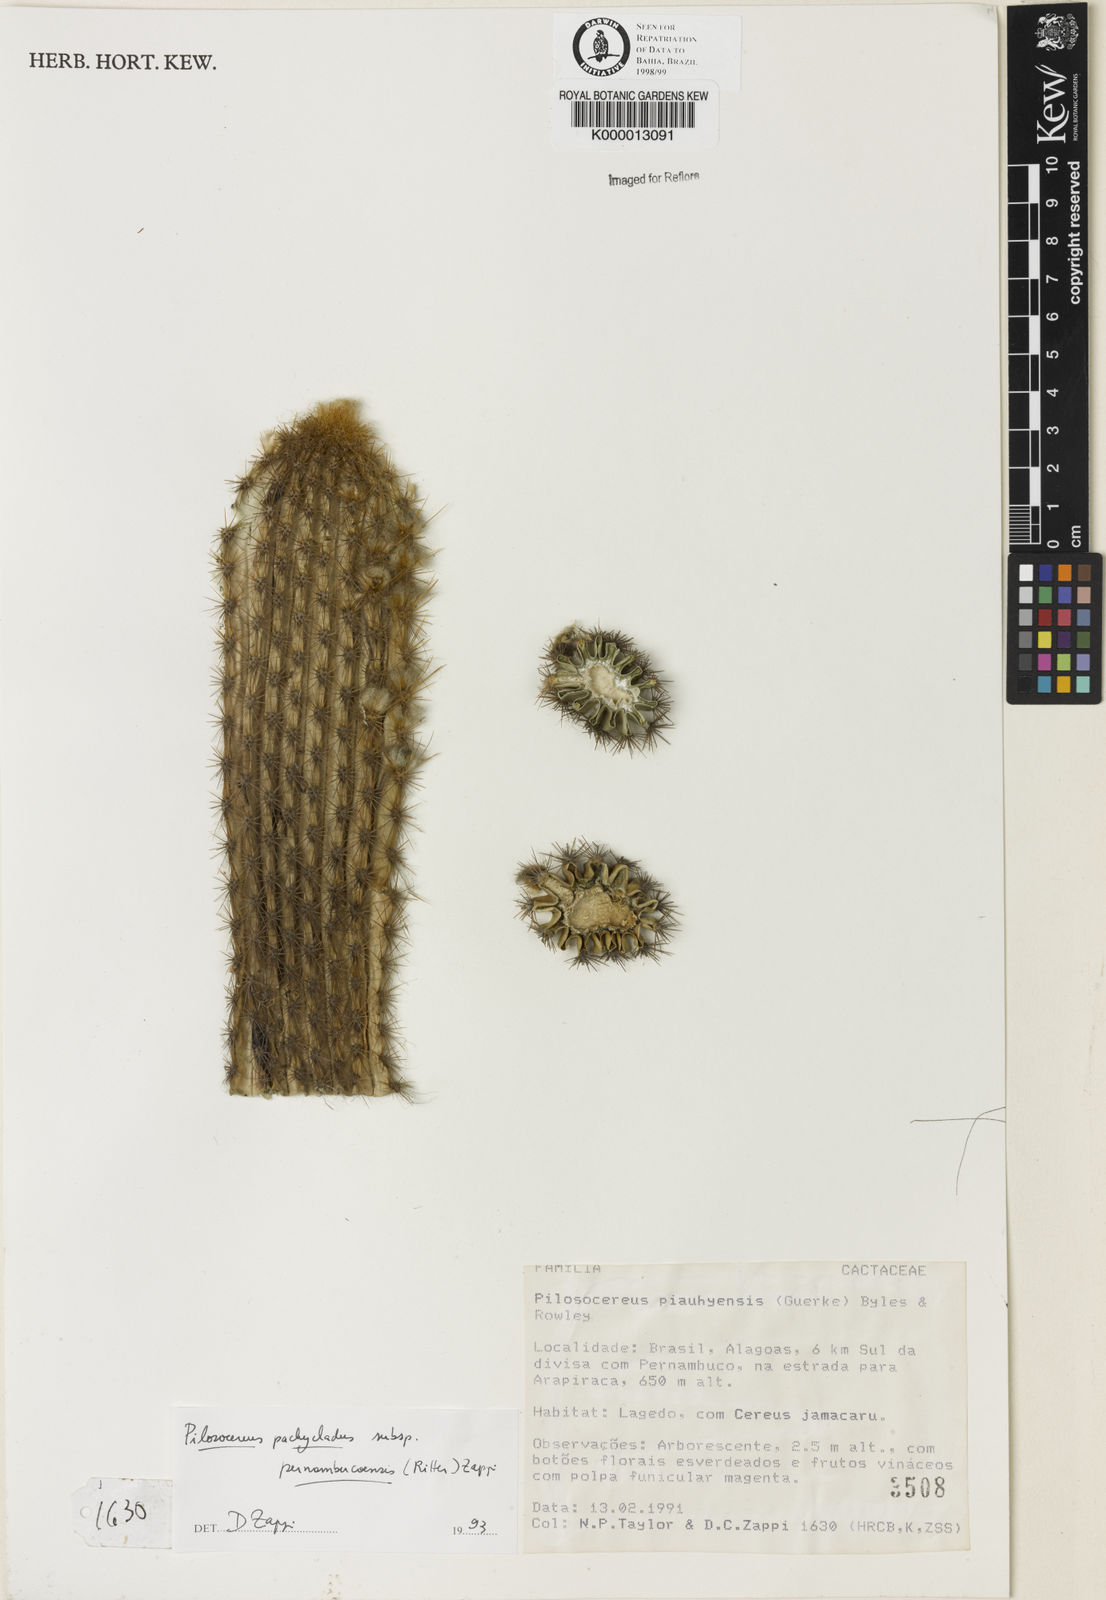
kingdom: Plantae
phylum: Tracheophyta
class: Magnoliopsida
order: Caryophyllales
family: Cactaceae
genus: Pilosocereus
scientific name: Pilosocereus pachycladus
